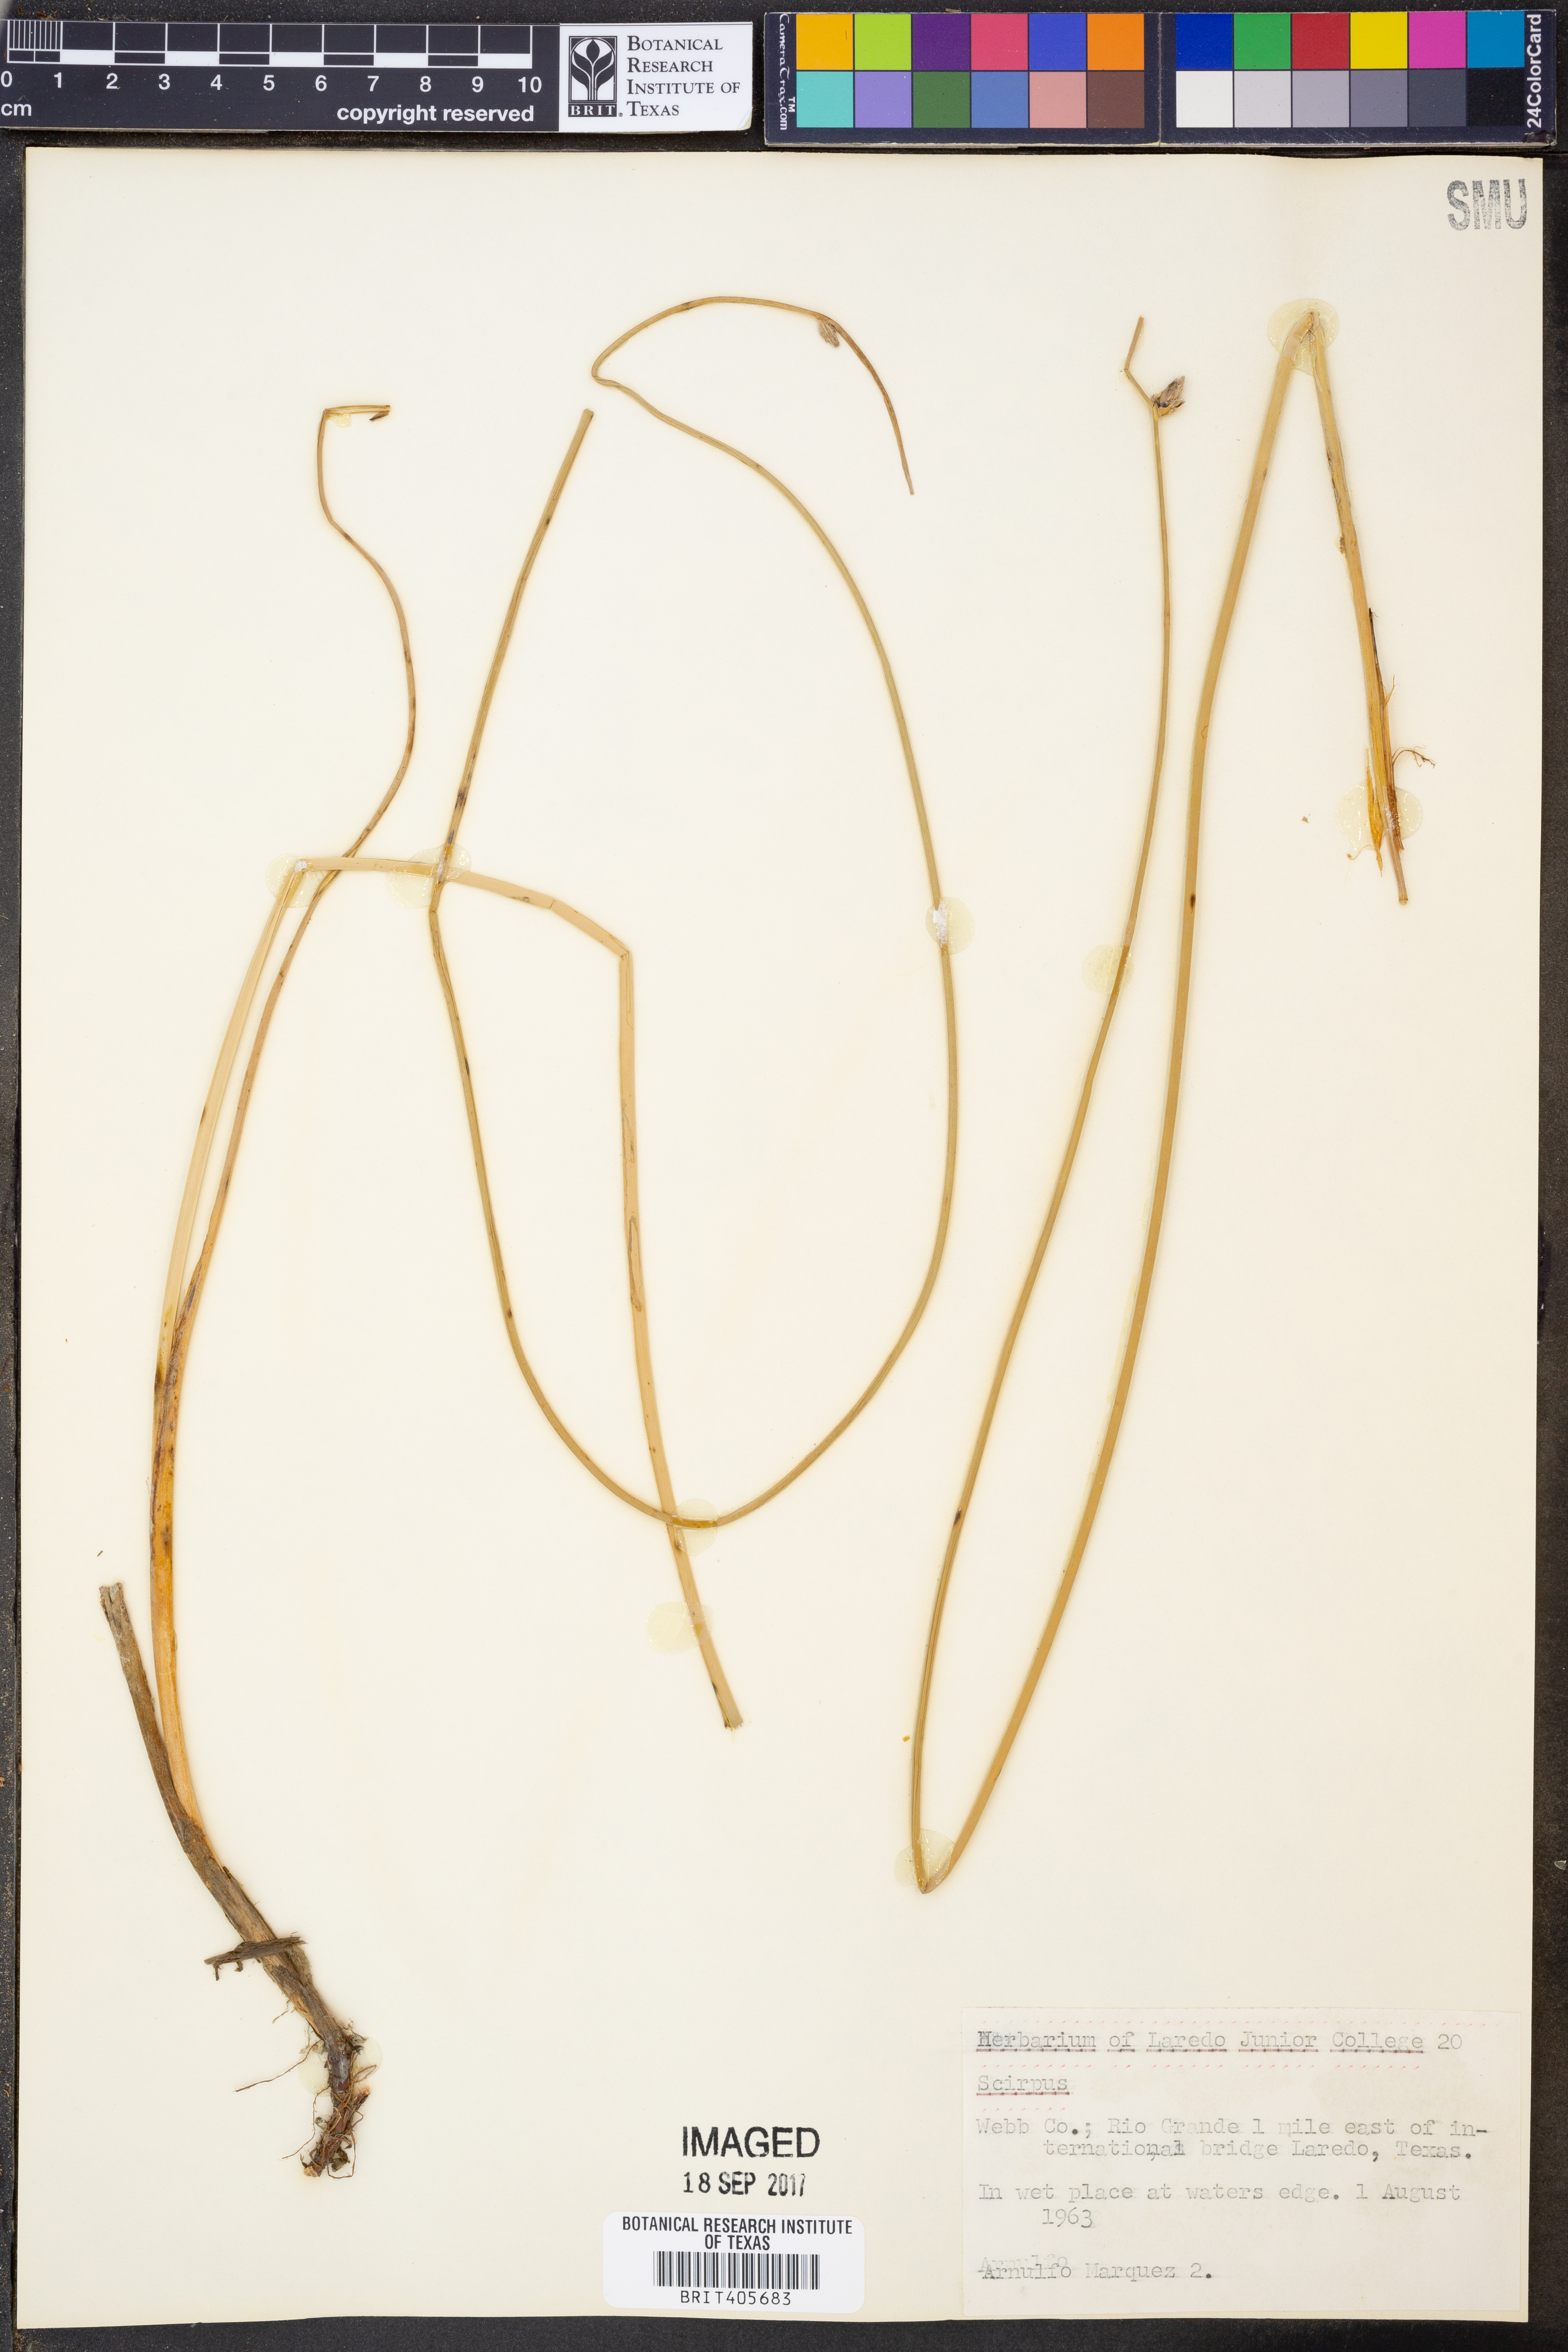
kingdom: Plantae
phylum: Tracheophyta
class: Liliopsida
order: Poales
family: Cyperaceae
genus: Scirpus
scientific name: Scirpus
